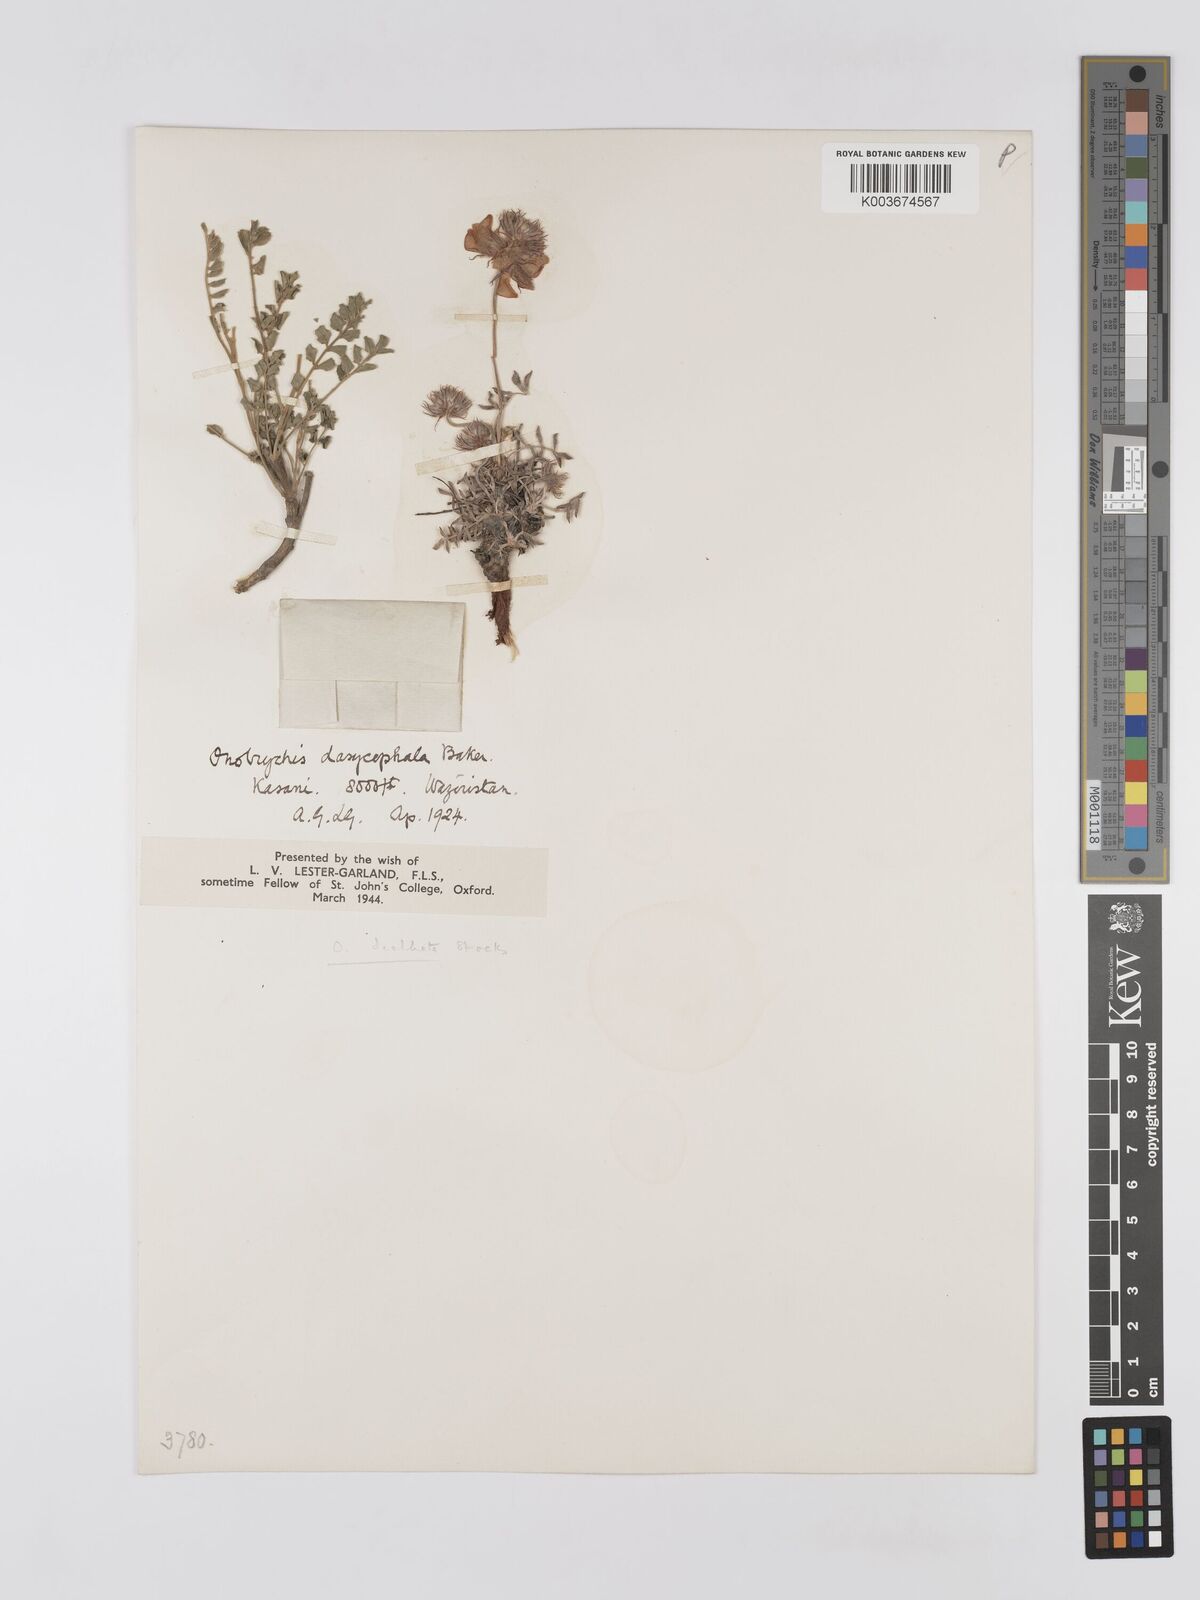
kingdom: Plantae
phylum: Tracheophyta
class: Magnoliopsida
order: Fabales
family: Fabaceae
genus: Onobrychis
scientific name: Onobrychis dealbata
